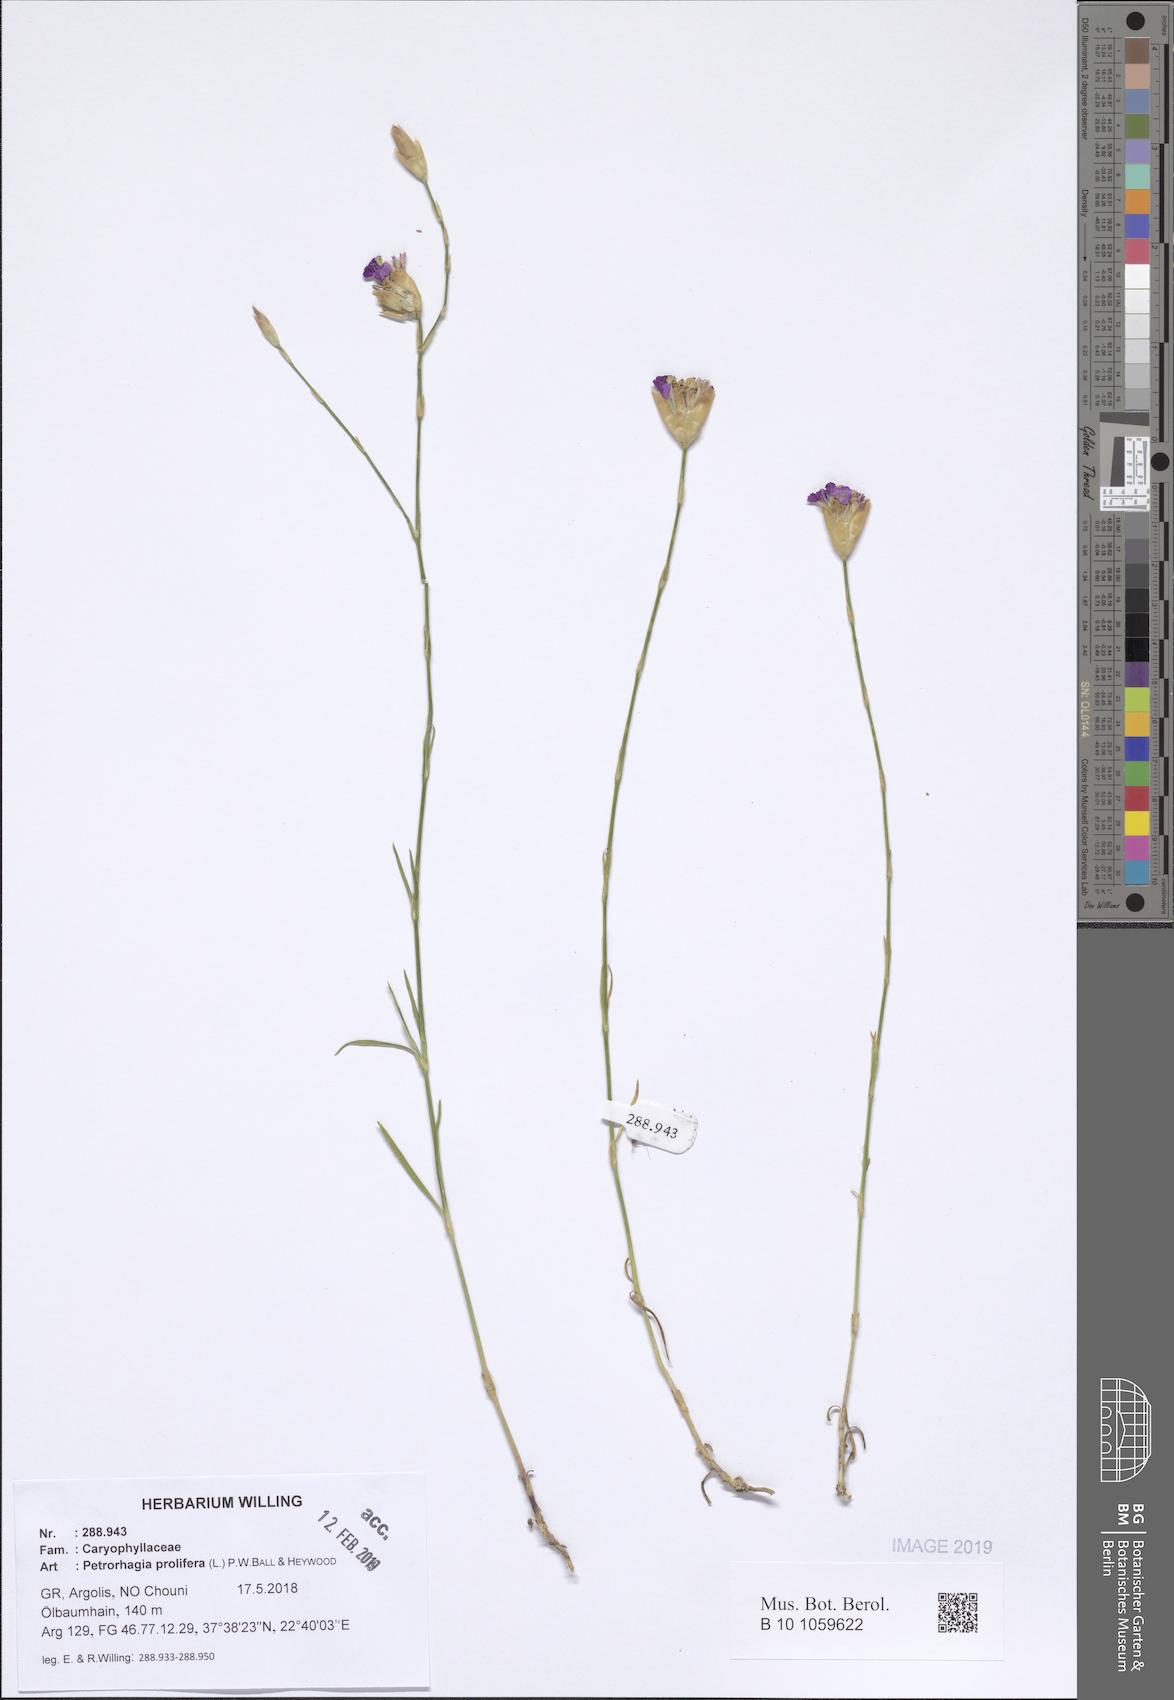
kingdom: Plantae
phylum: Tracheophyta
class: Magnoliopsida
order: Caryophyllales
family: Caryophyllaceae
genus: Petrorhagia
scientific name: Petrorhagia prolifera
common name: Proliferous pink
